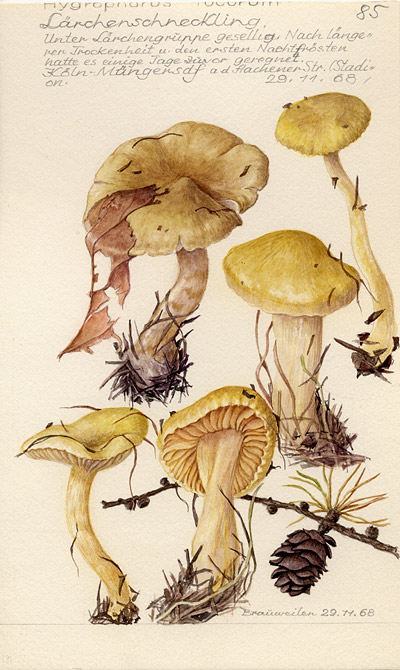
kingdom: Fungi
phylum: Basidiomycota
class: Agaricomycetes
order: Agaricales
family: Hygrophoraceae
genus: Hygrophorus
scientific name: Hygrophorus lucorum
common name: Larch woodwax
